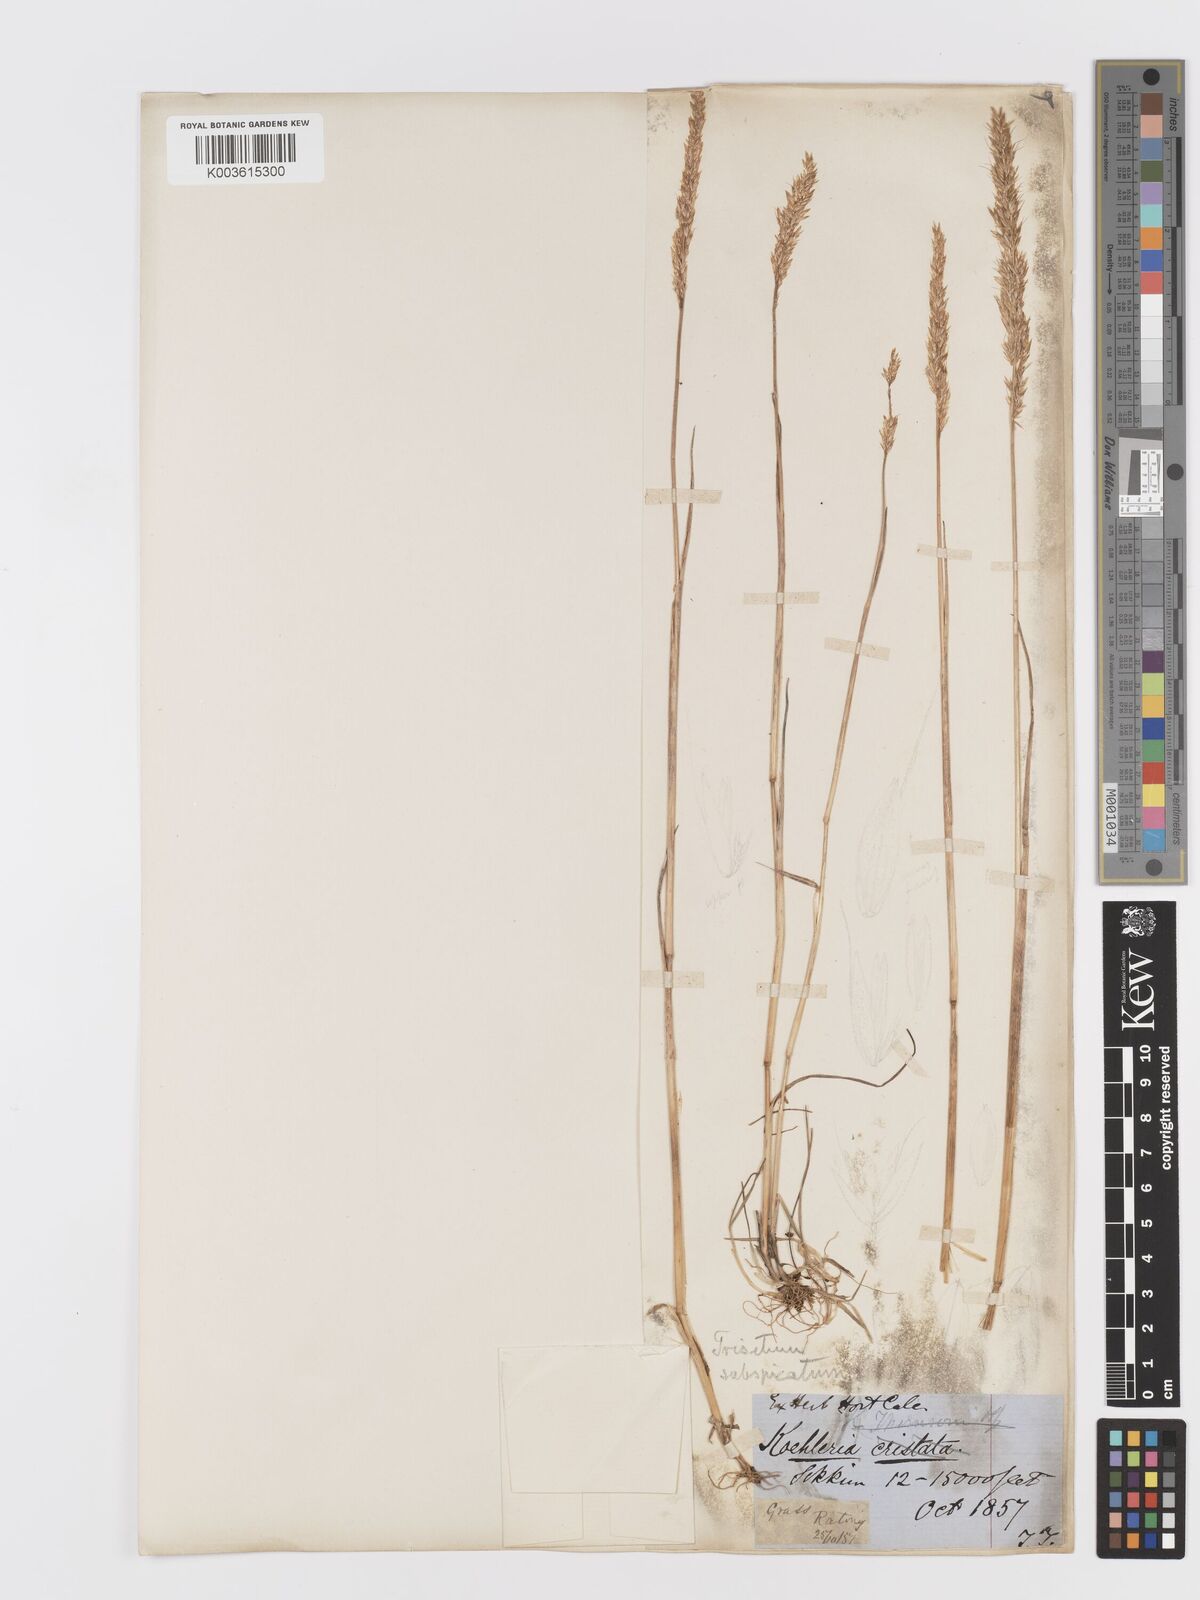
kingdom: Plantae
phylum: Tracheophyta
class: Liliopsida
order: Poales
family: Poaceae
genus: Koeleria
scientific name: Koeleria spicata
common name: Mountain trisetum
